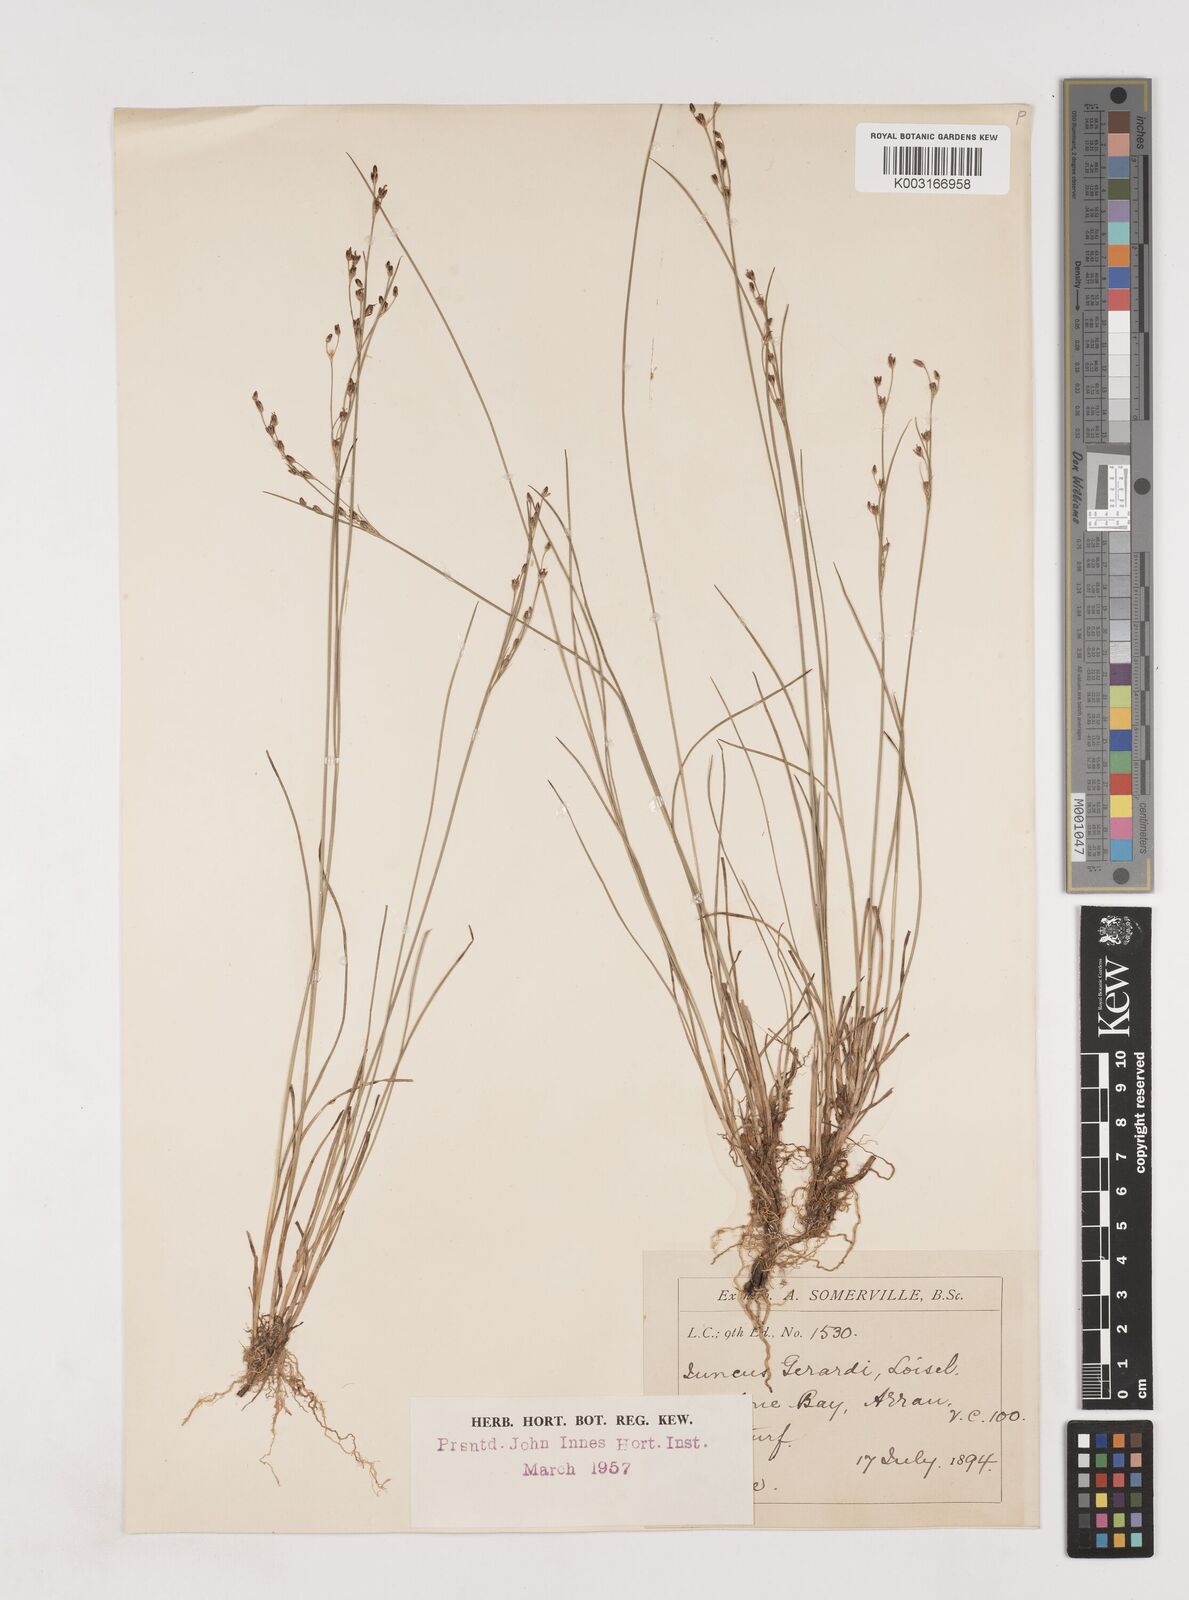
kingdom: Plantae
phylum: Tracheophyta
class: Liliopsida
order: Poales
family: Juncaceae
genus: Juncus
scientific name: Juncus gerardi
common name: Saltmarsh rush
